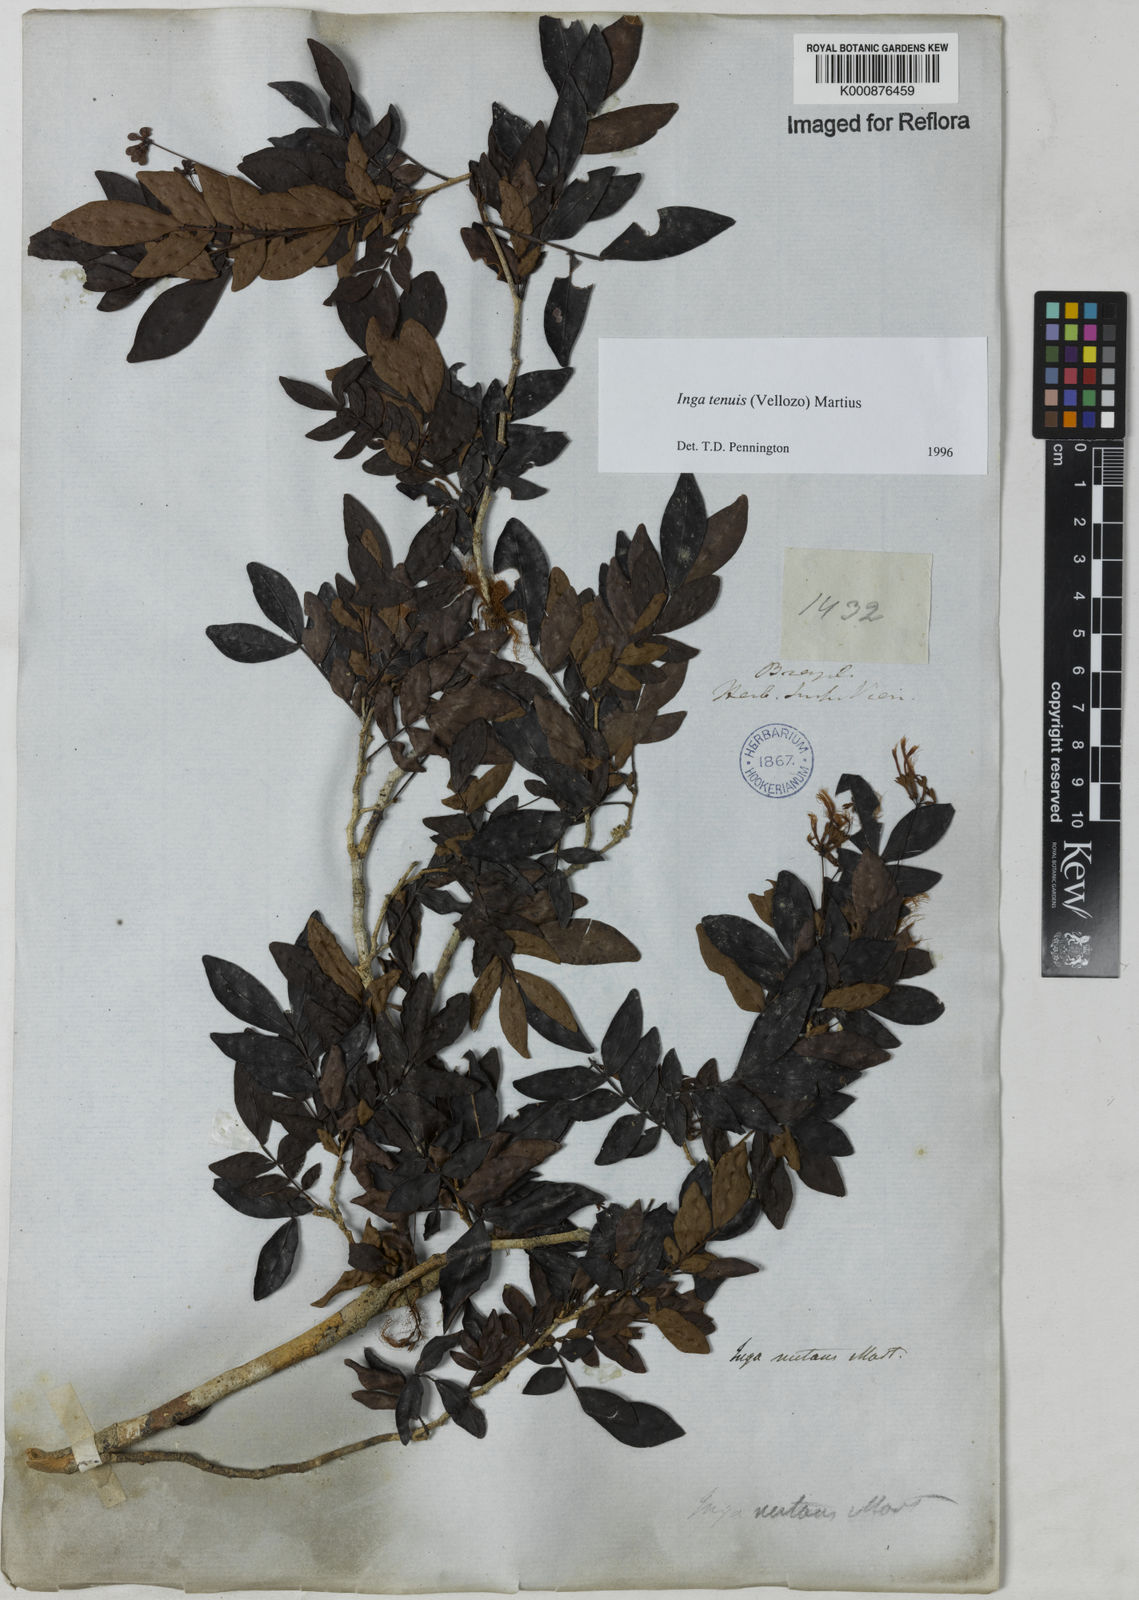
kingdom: Plantae
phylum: Tracheophyta
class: Magnoliopsida
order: Fabales
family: Fabaceae
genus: Inga
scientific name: Inga tenuis
